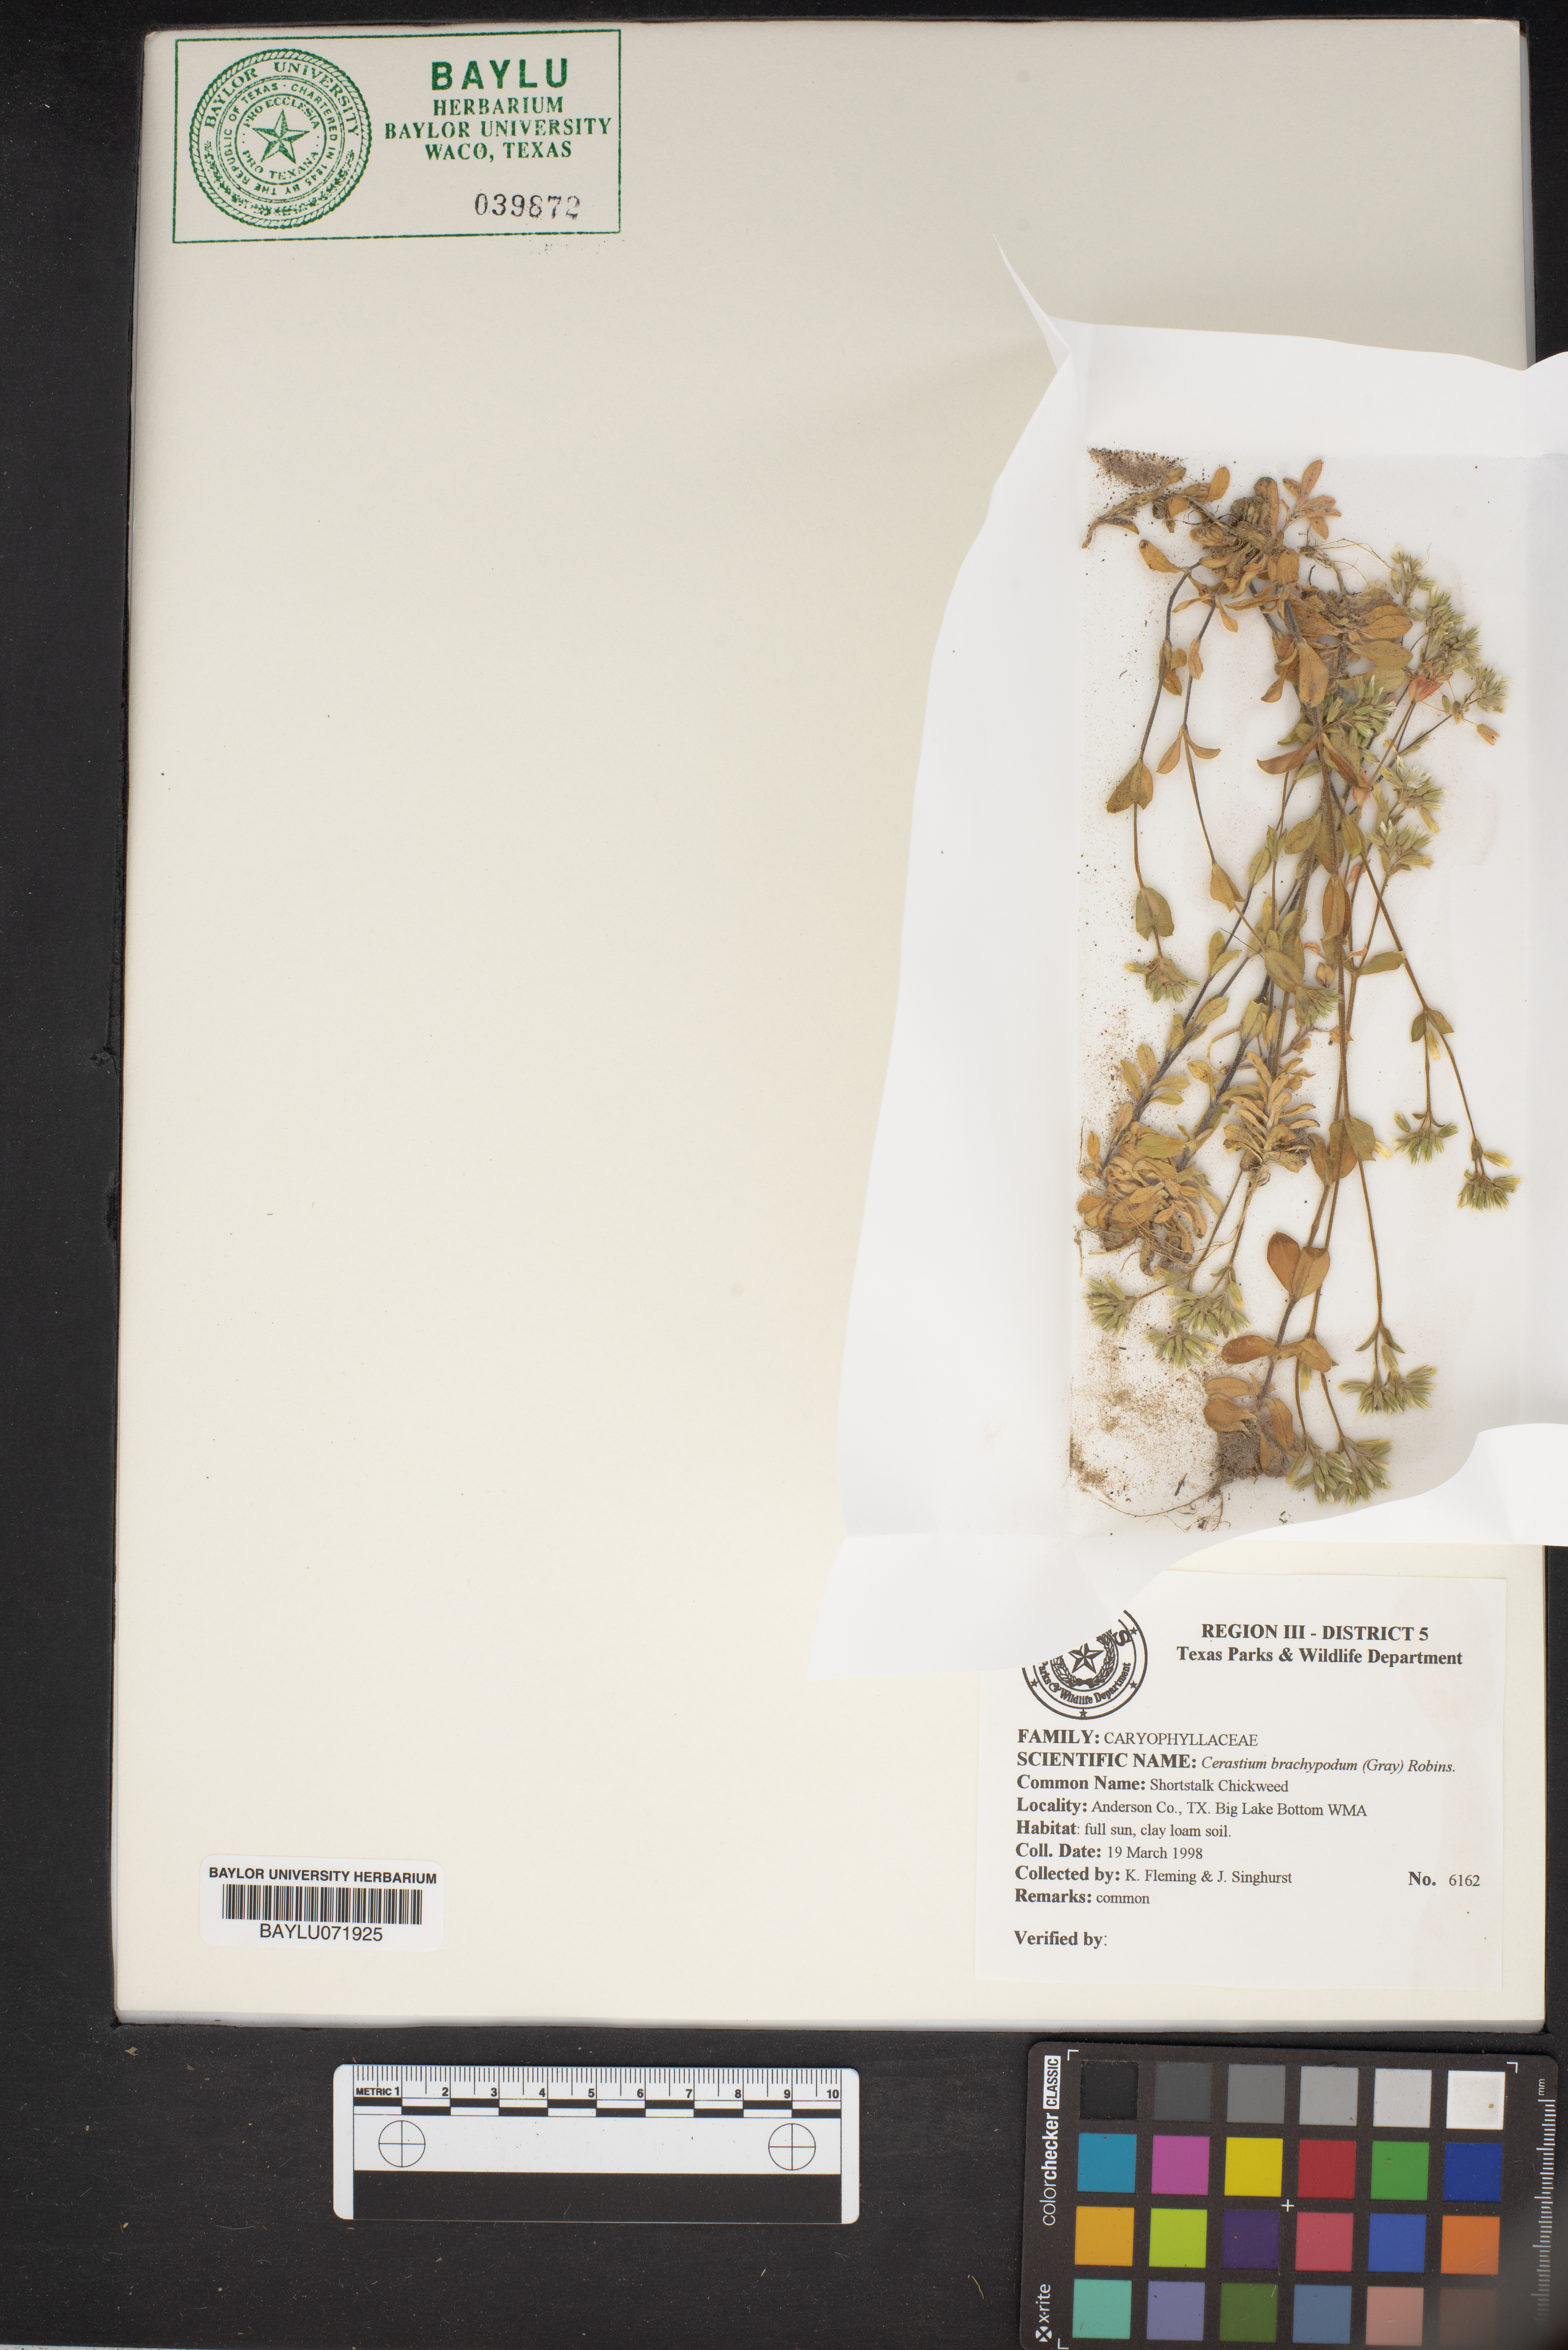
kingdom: Plantae
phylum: Tracheophyta
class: Magnoliopsida
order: Caryophyllales
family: Caryophyllaceae
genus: Cerastium
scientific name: Cerastium brachypodum
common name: Short-pedicelled nodding chickweed
